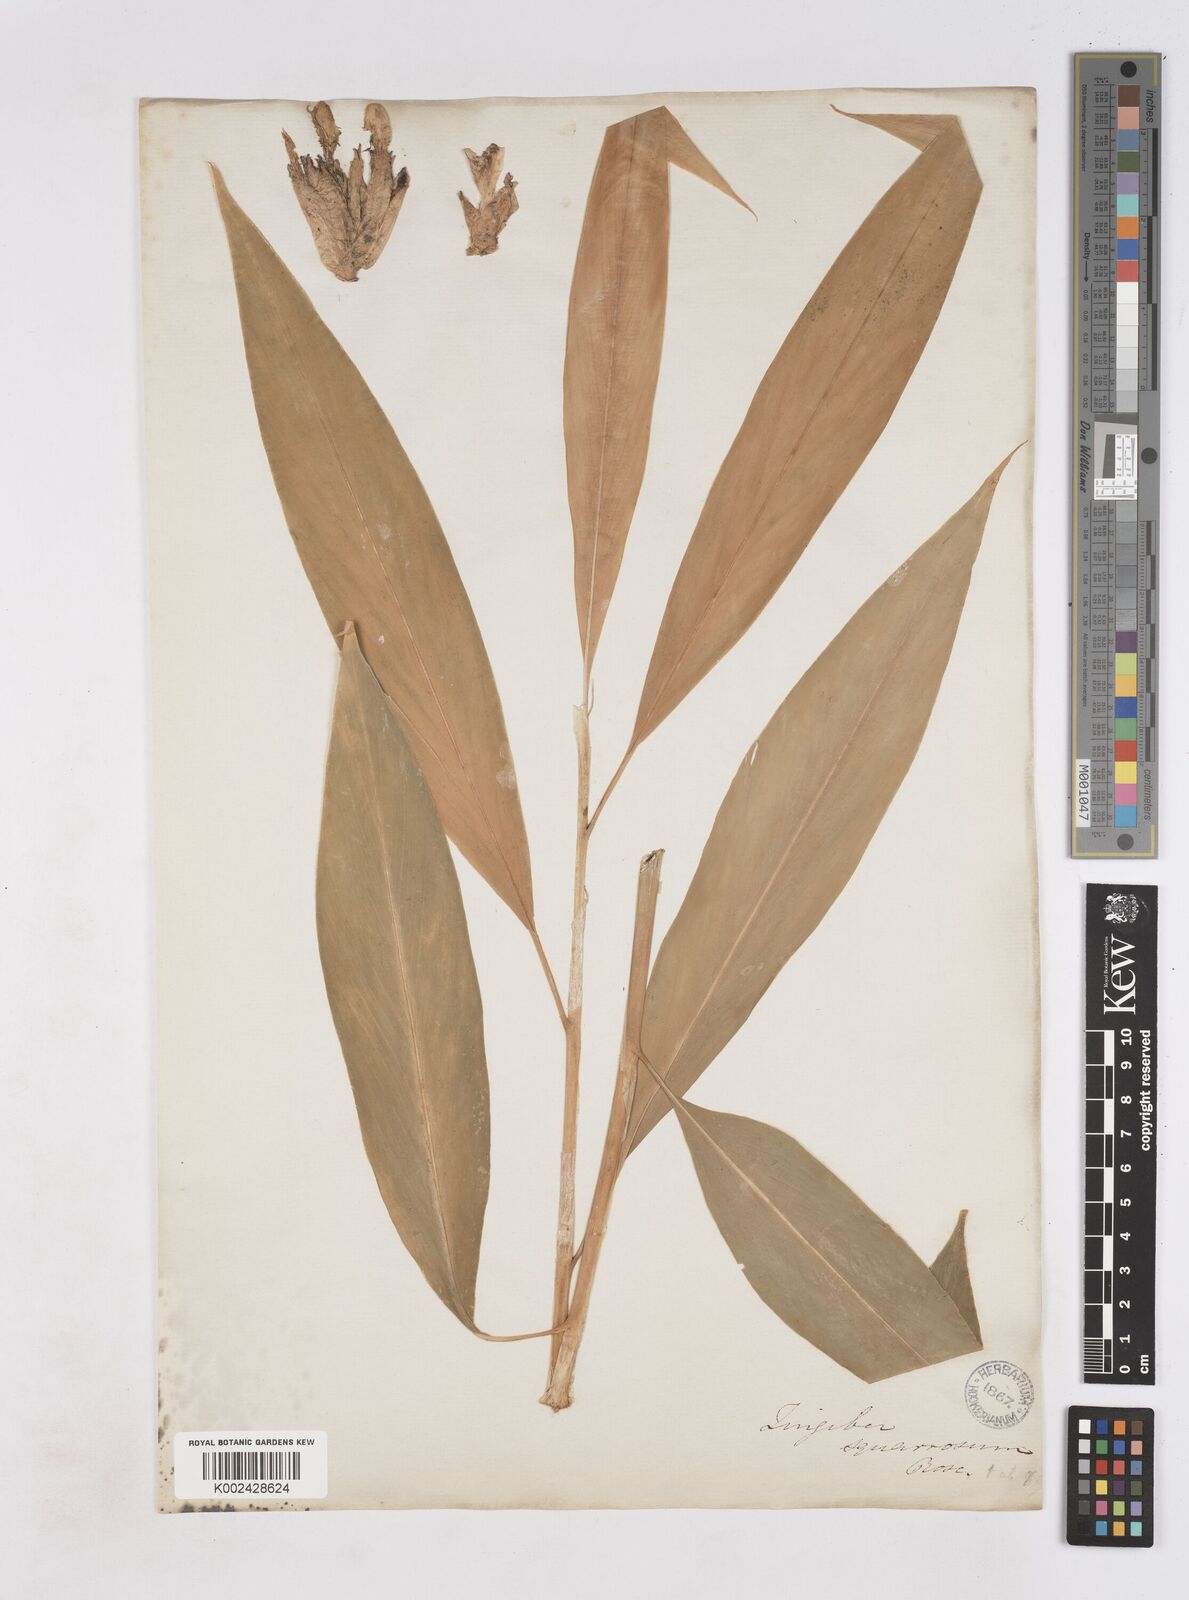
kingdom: Plantae
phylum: Tracheophyta
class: Liliopsida
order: Zingiberales
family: Zingiberaceae
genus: Zingiber
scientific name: Zingiber squarrosum
